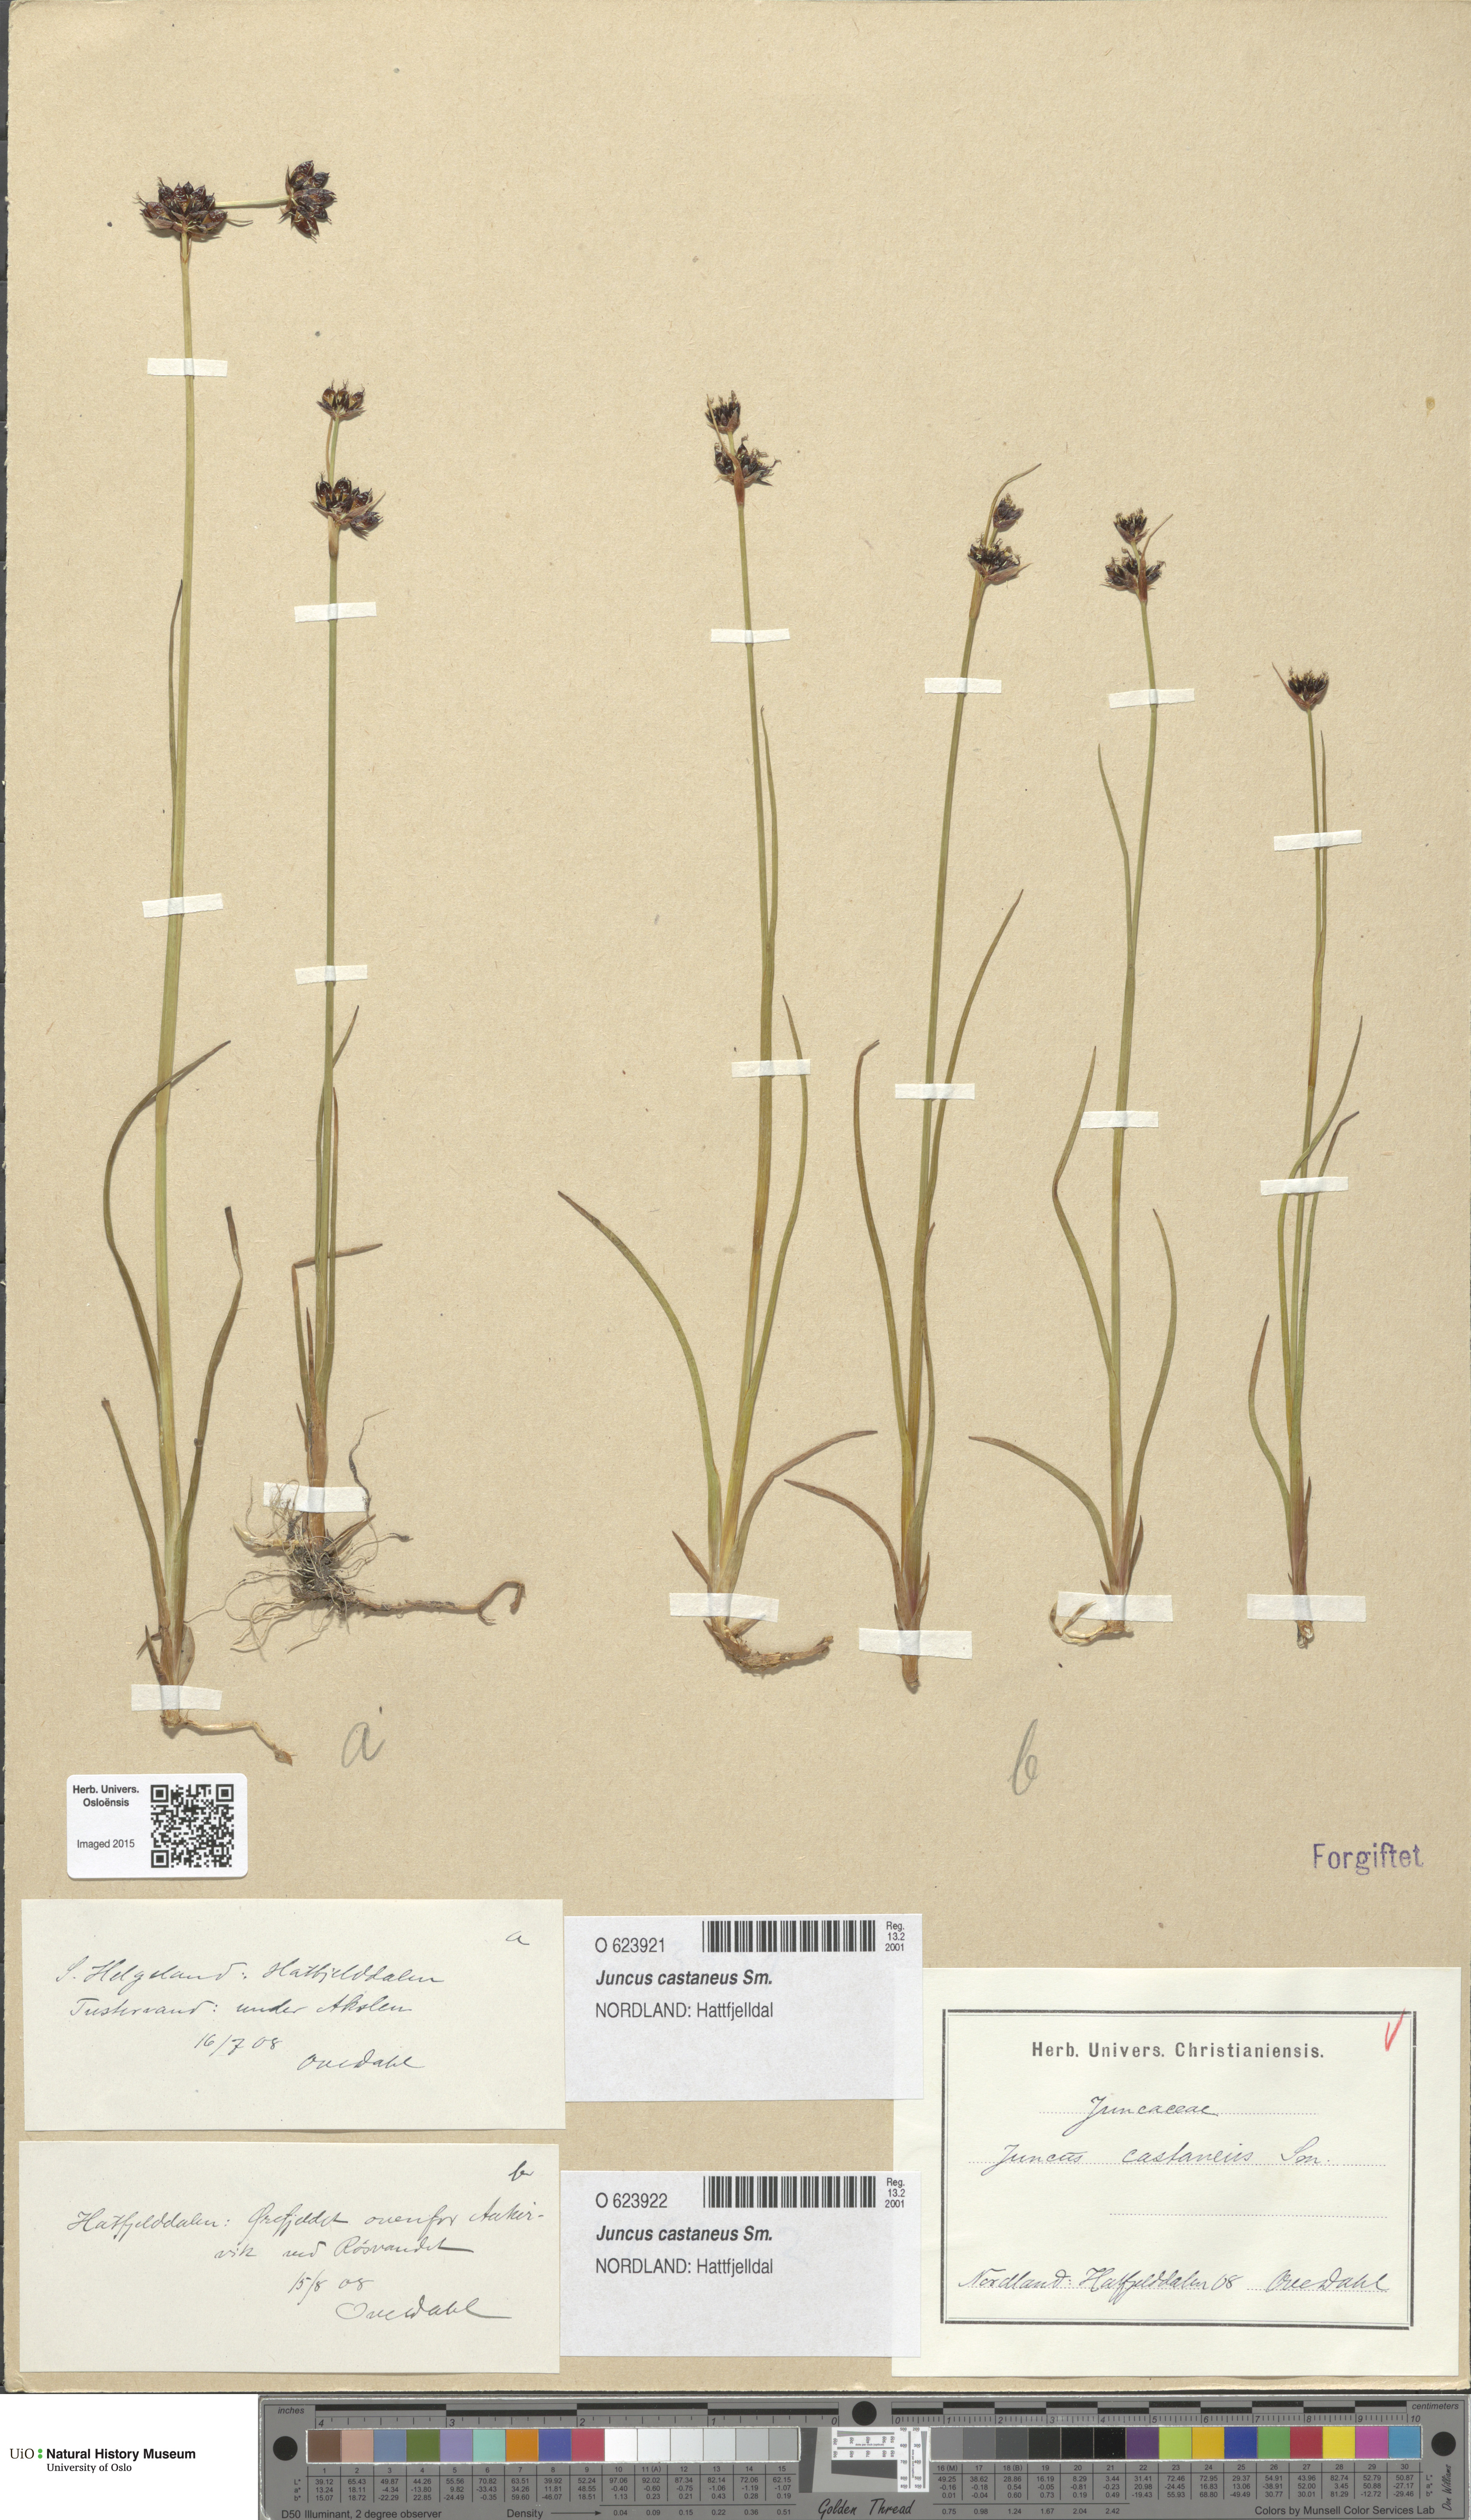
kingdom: Plantae
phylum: Tracheophyta
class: Liliopsida
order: Poales
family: Juncaceae
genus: Juncus
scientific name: Juncus castaneus
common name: Chestnut rush
